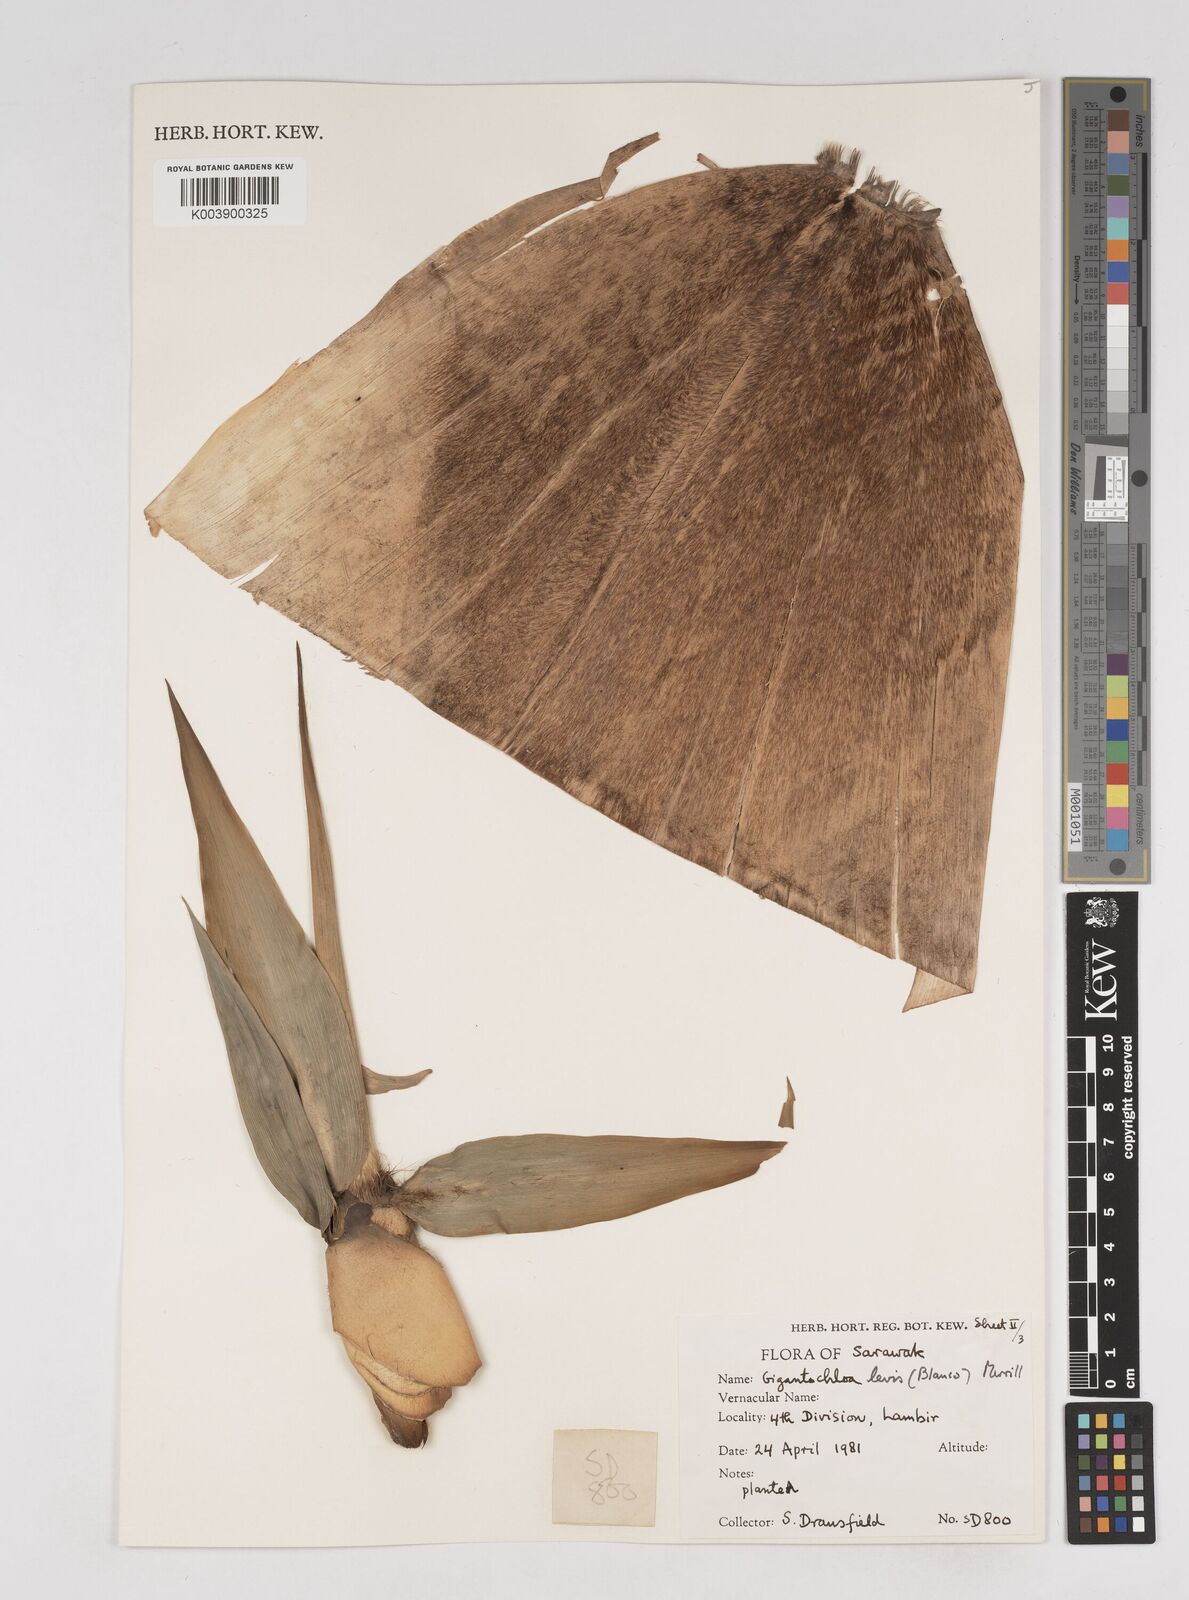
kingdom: Plantae
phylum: Tracheophyta
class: Liliopsida
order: Poales
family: Poaceae
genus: Gigantochloa
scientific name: Gigantochloa levis
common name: Smooth-shoot gigantochloa
